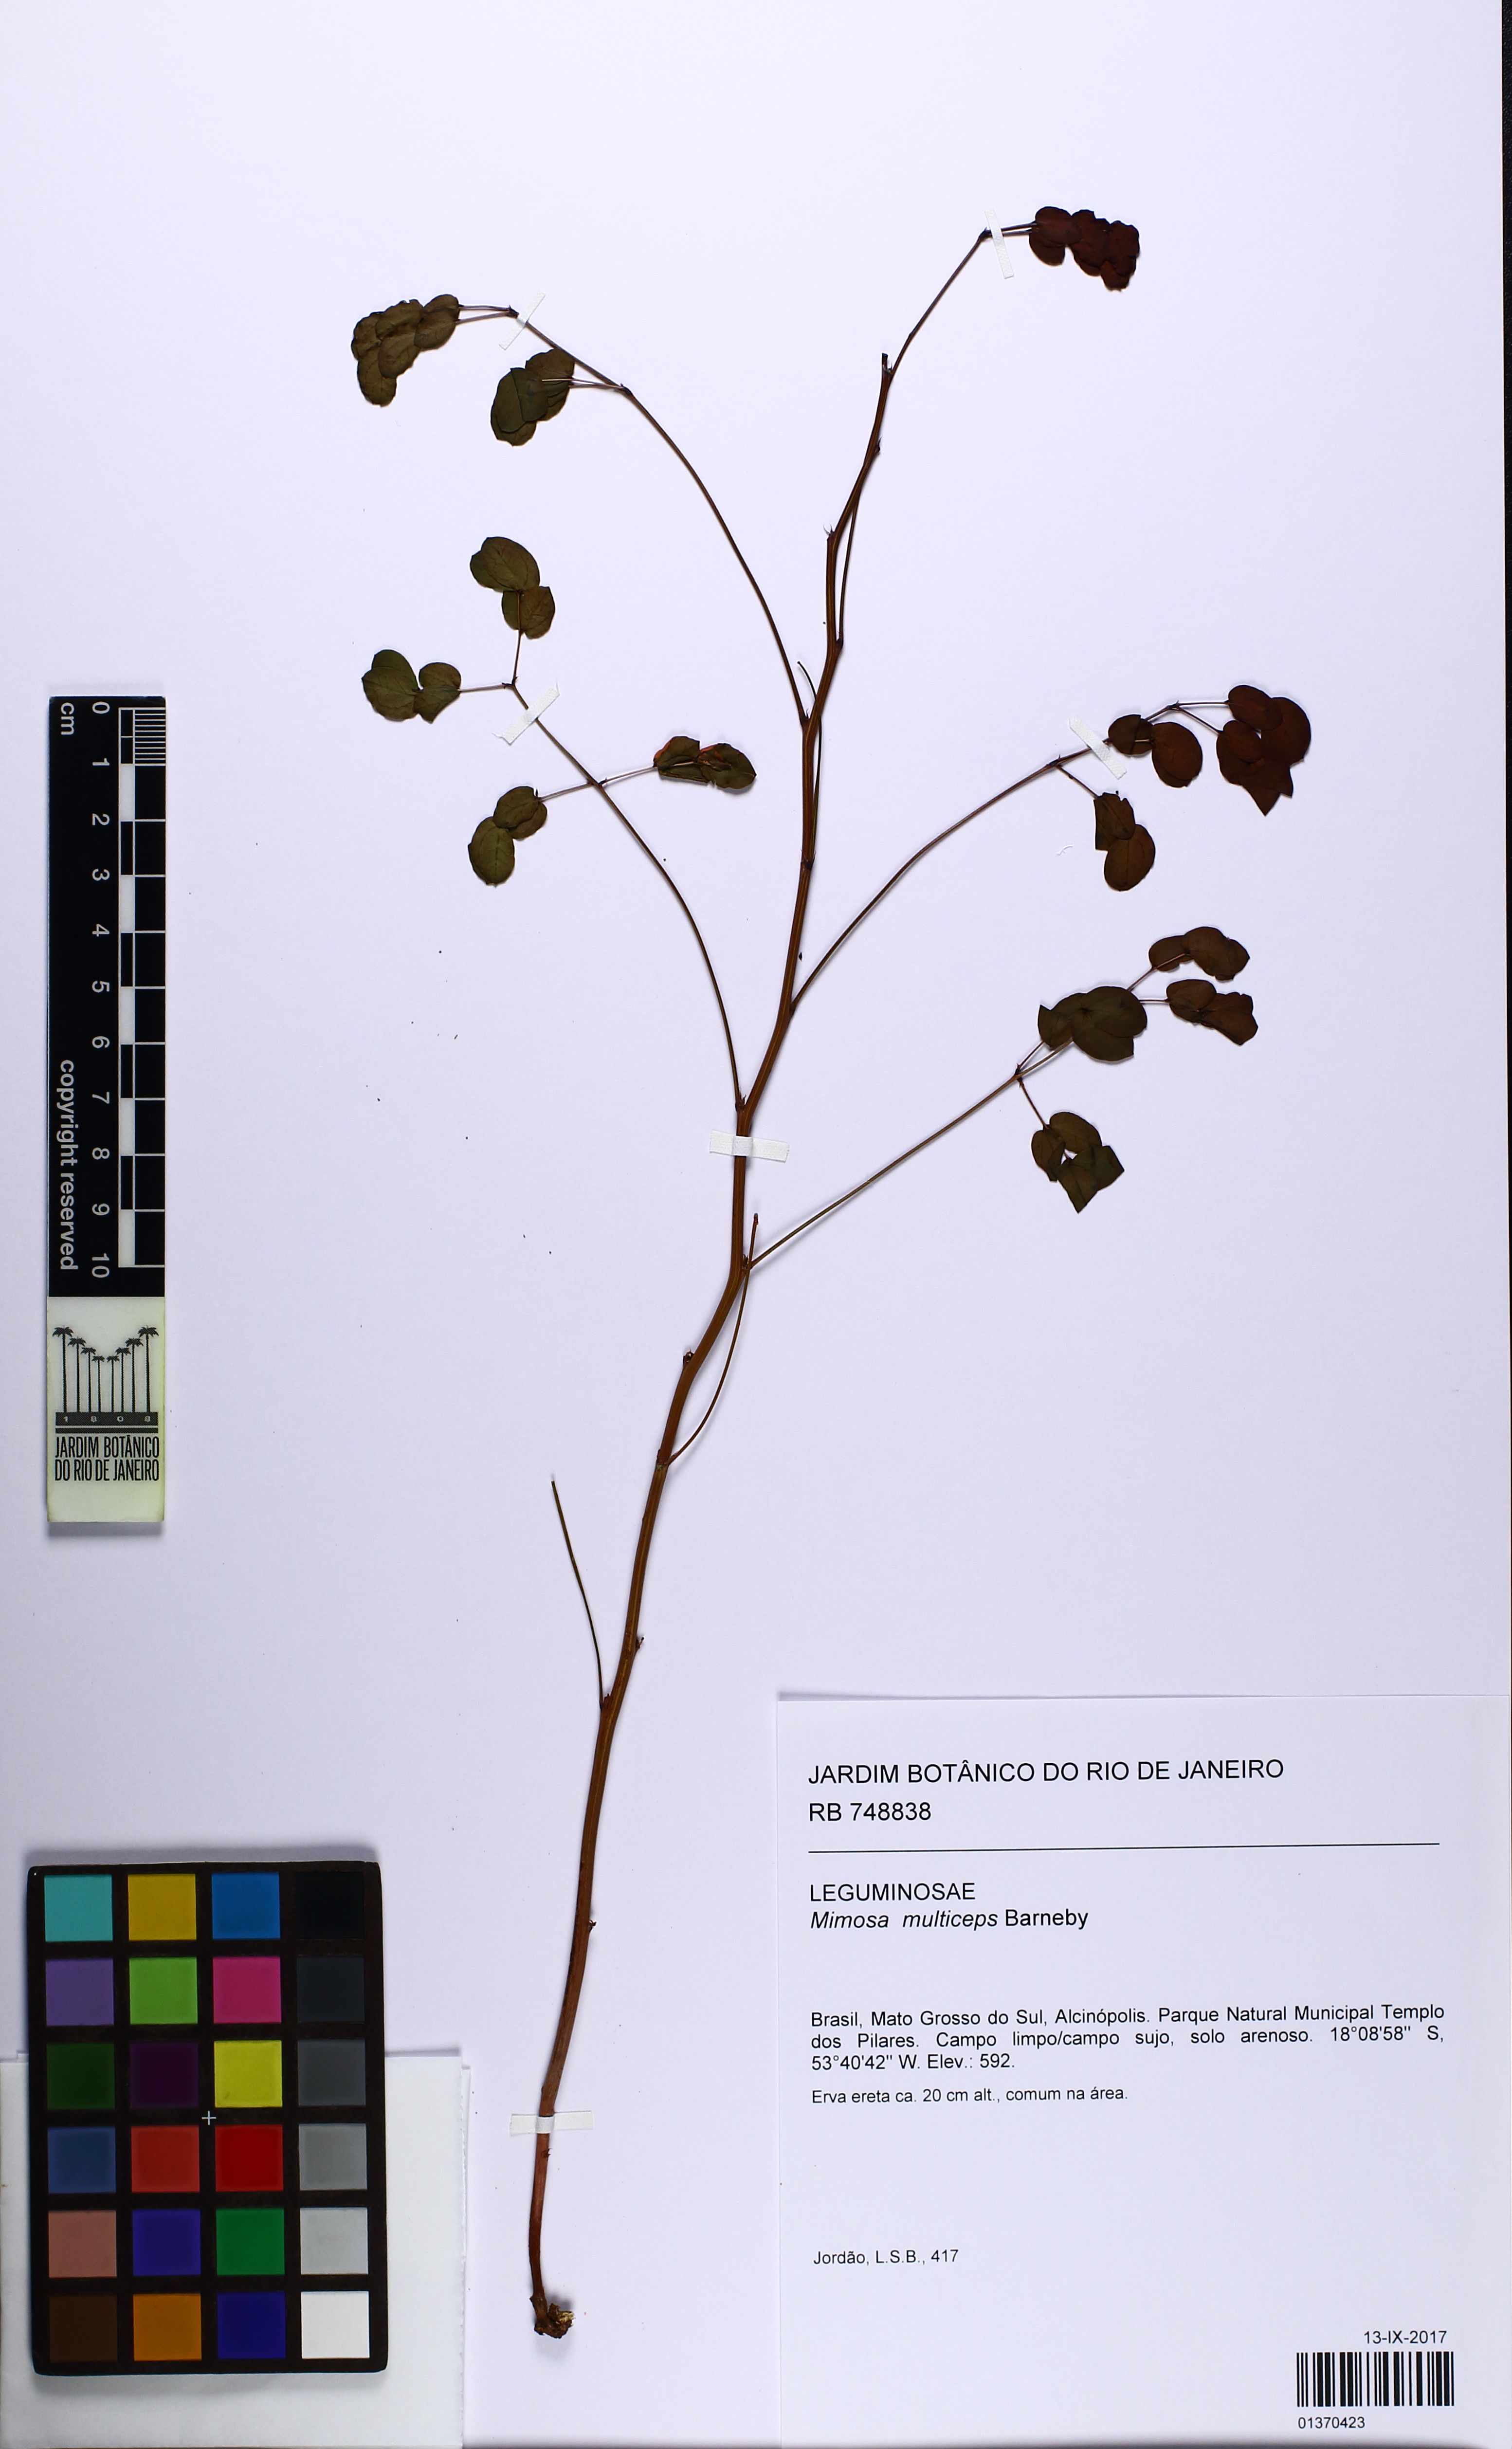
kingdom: Plantae
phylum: Tracheophyta
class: Magnoliopsida
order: Fabales
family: Fabaceae
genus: Mimosa
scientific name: Mimosa multiceps
